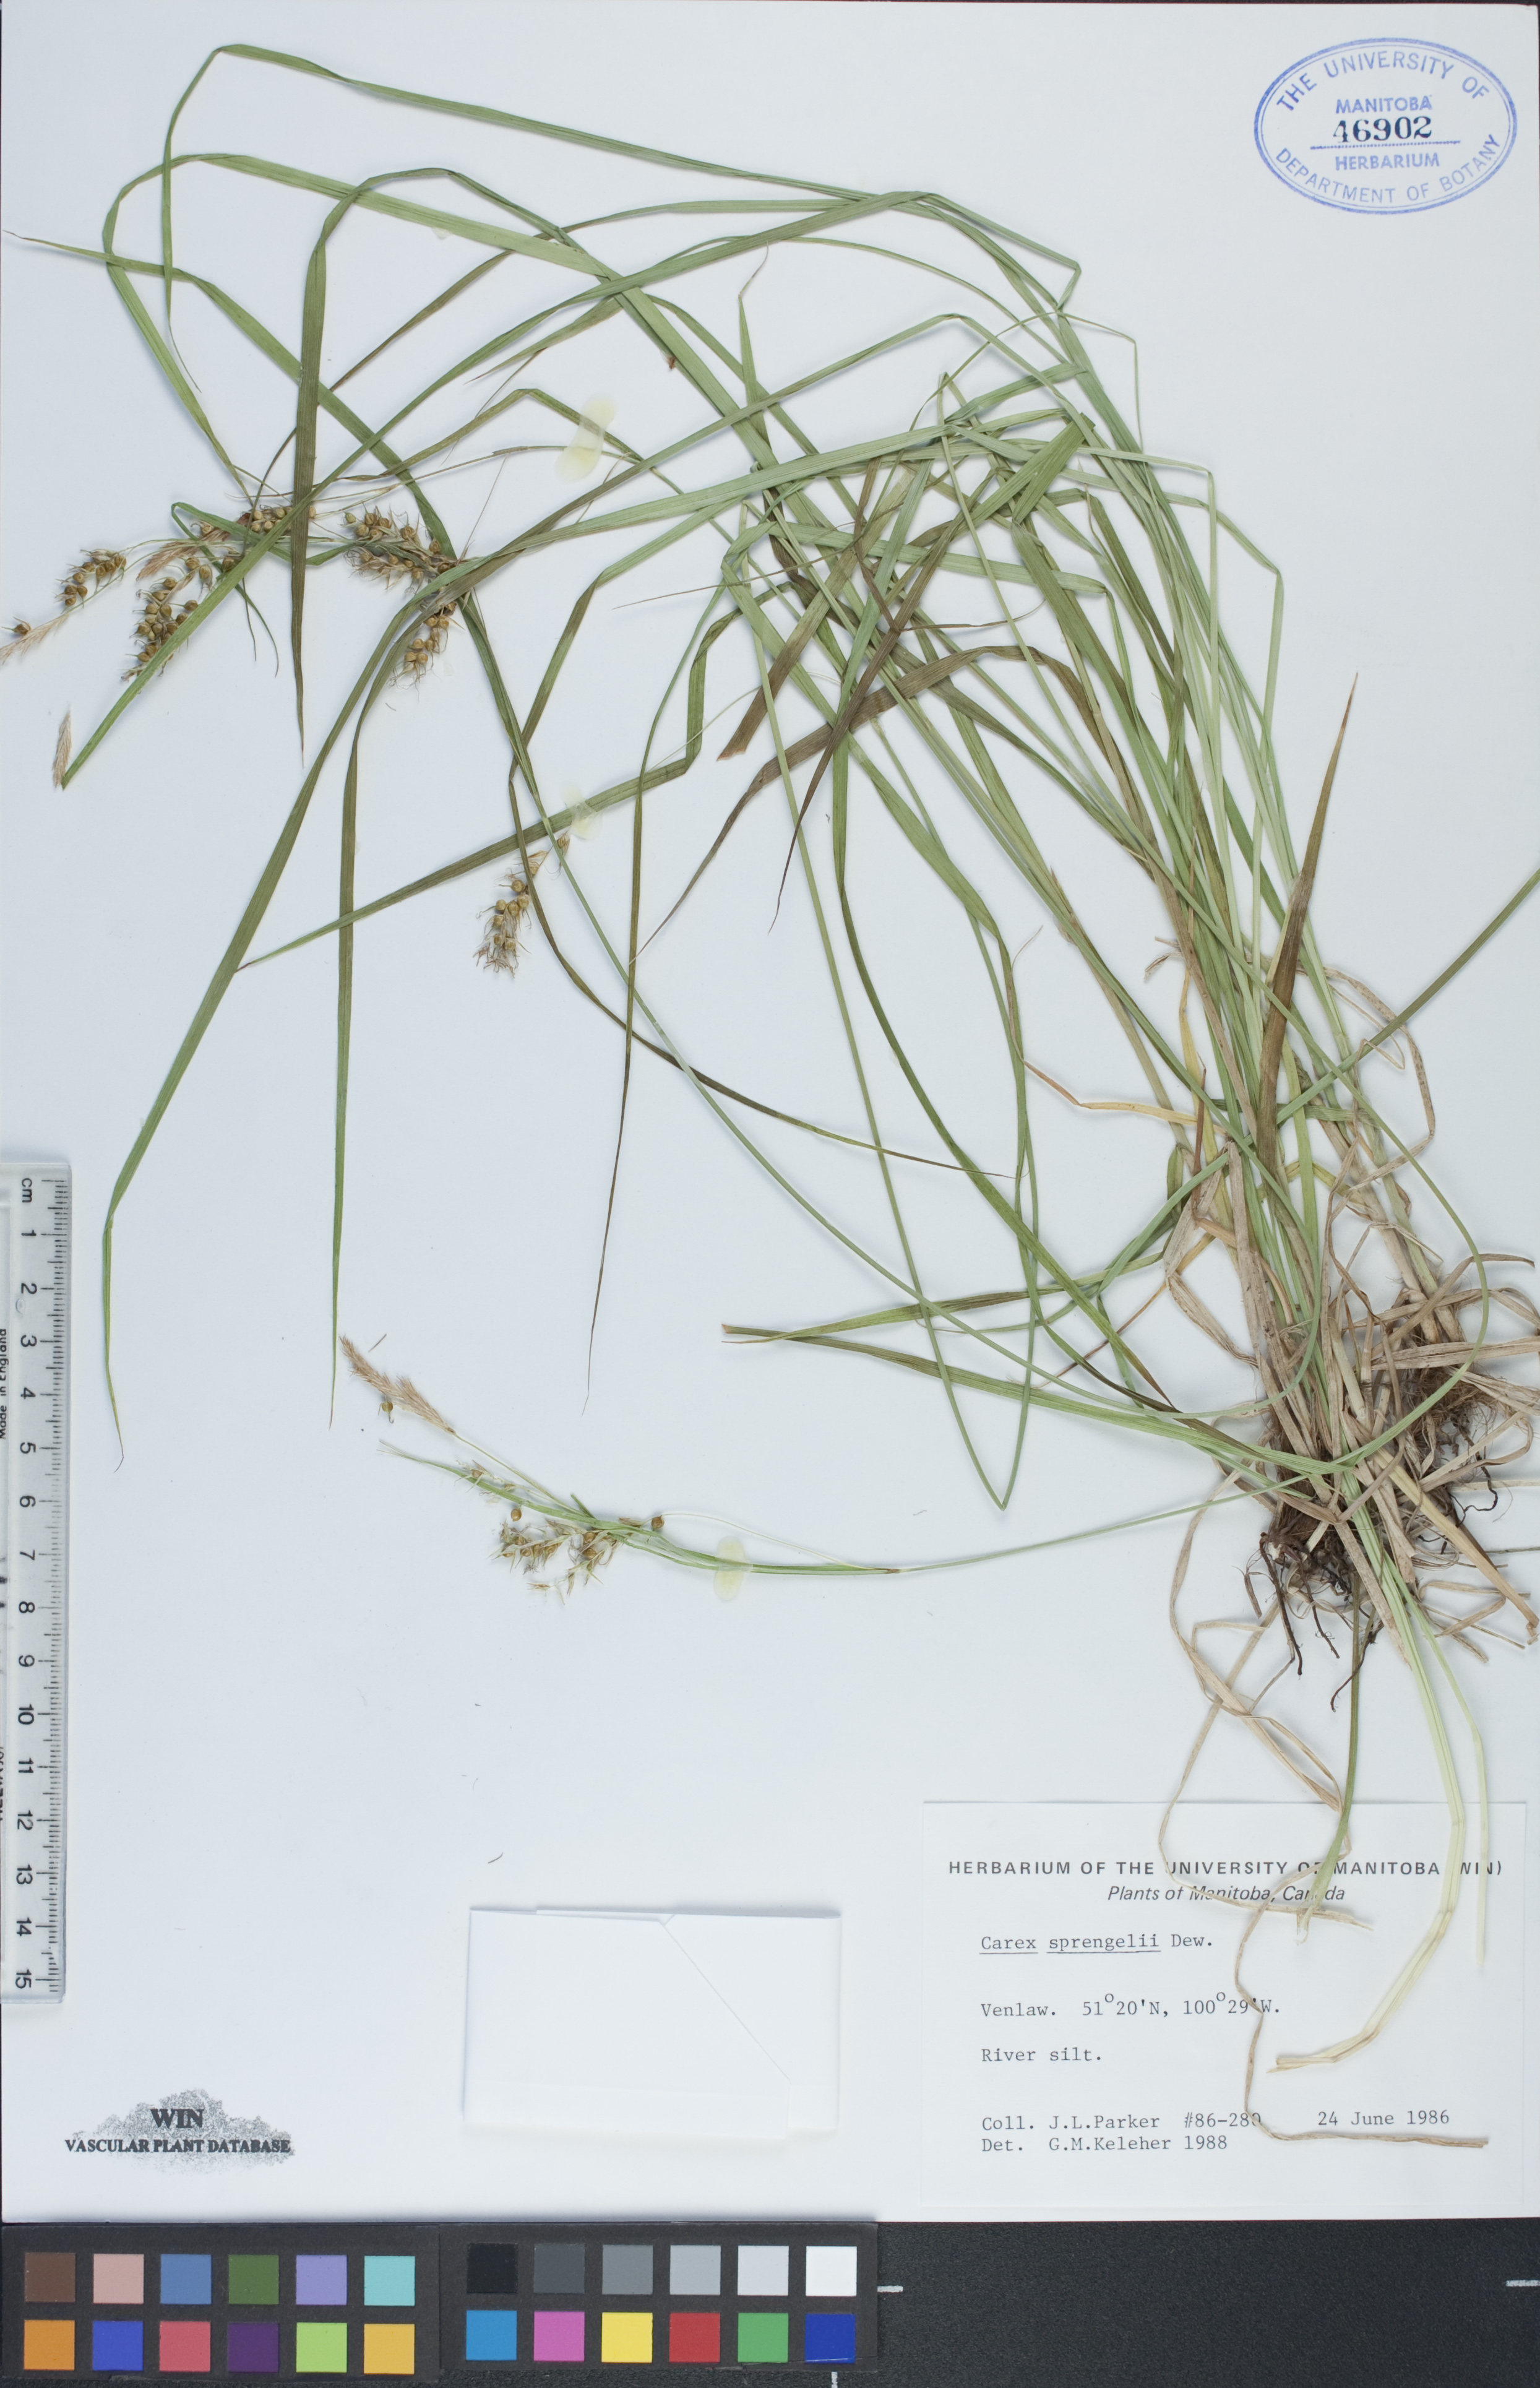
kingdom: Plantae
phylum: Tracheophyta
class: Liliopsida
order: Poales
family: Cyperaceae
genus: Carex
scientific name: Carex sprengelii
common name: Long-beaked sedge
